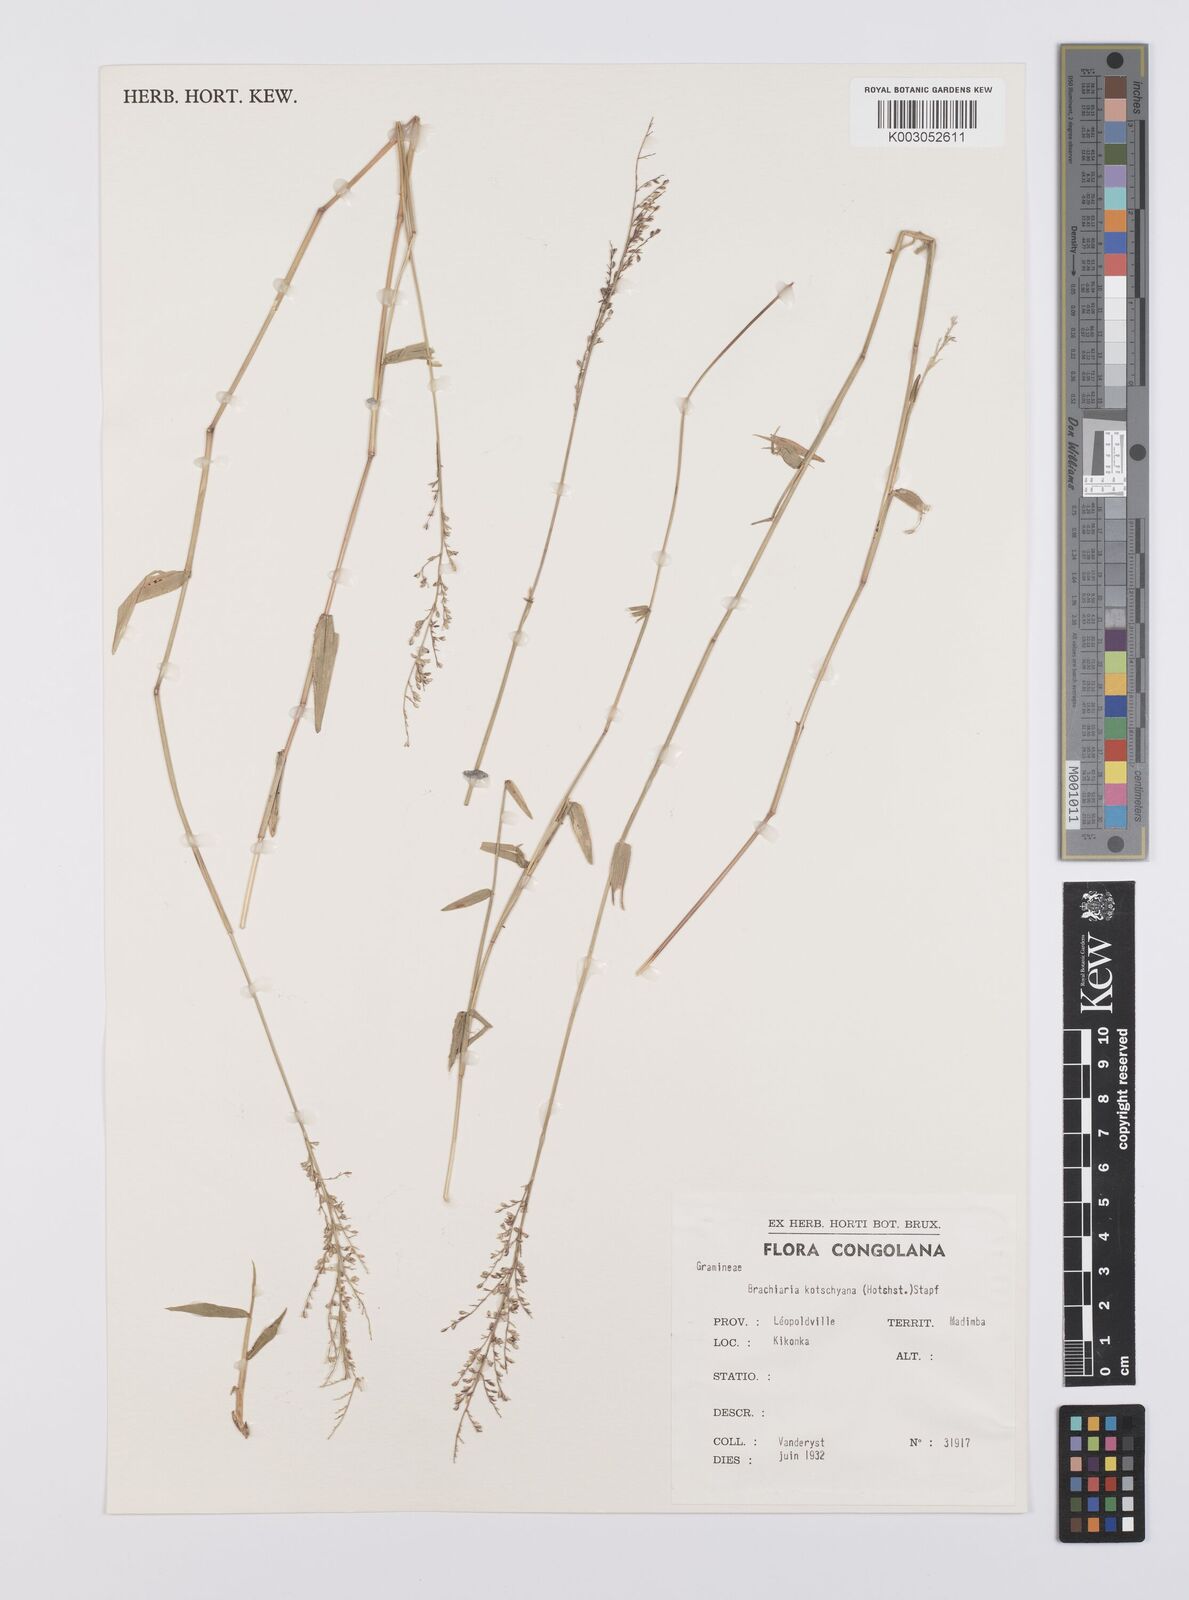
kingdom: Plantae
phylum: Tracheophyta
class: Liliopsida
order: Poales
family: Poaceae
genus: Urochloa
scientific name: Urochloa comata
